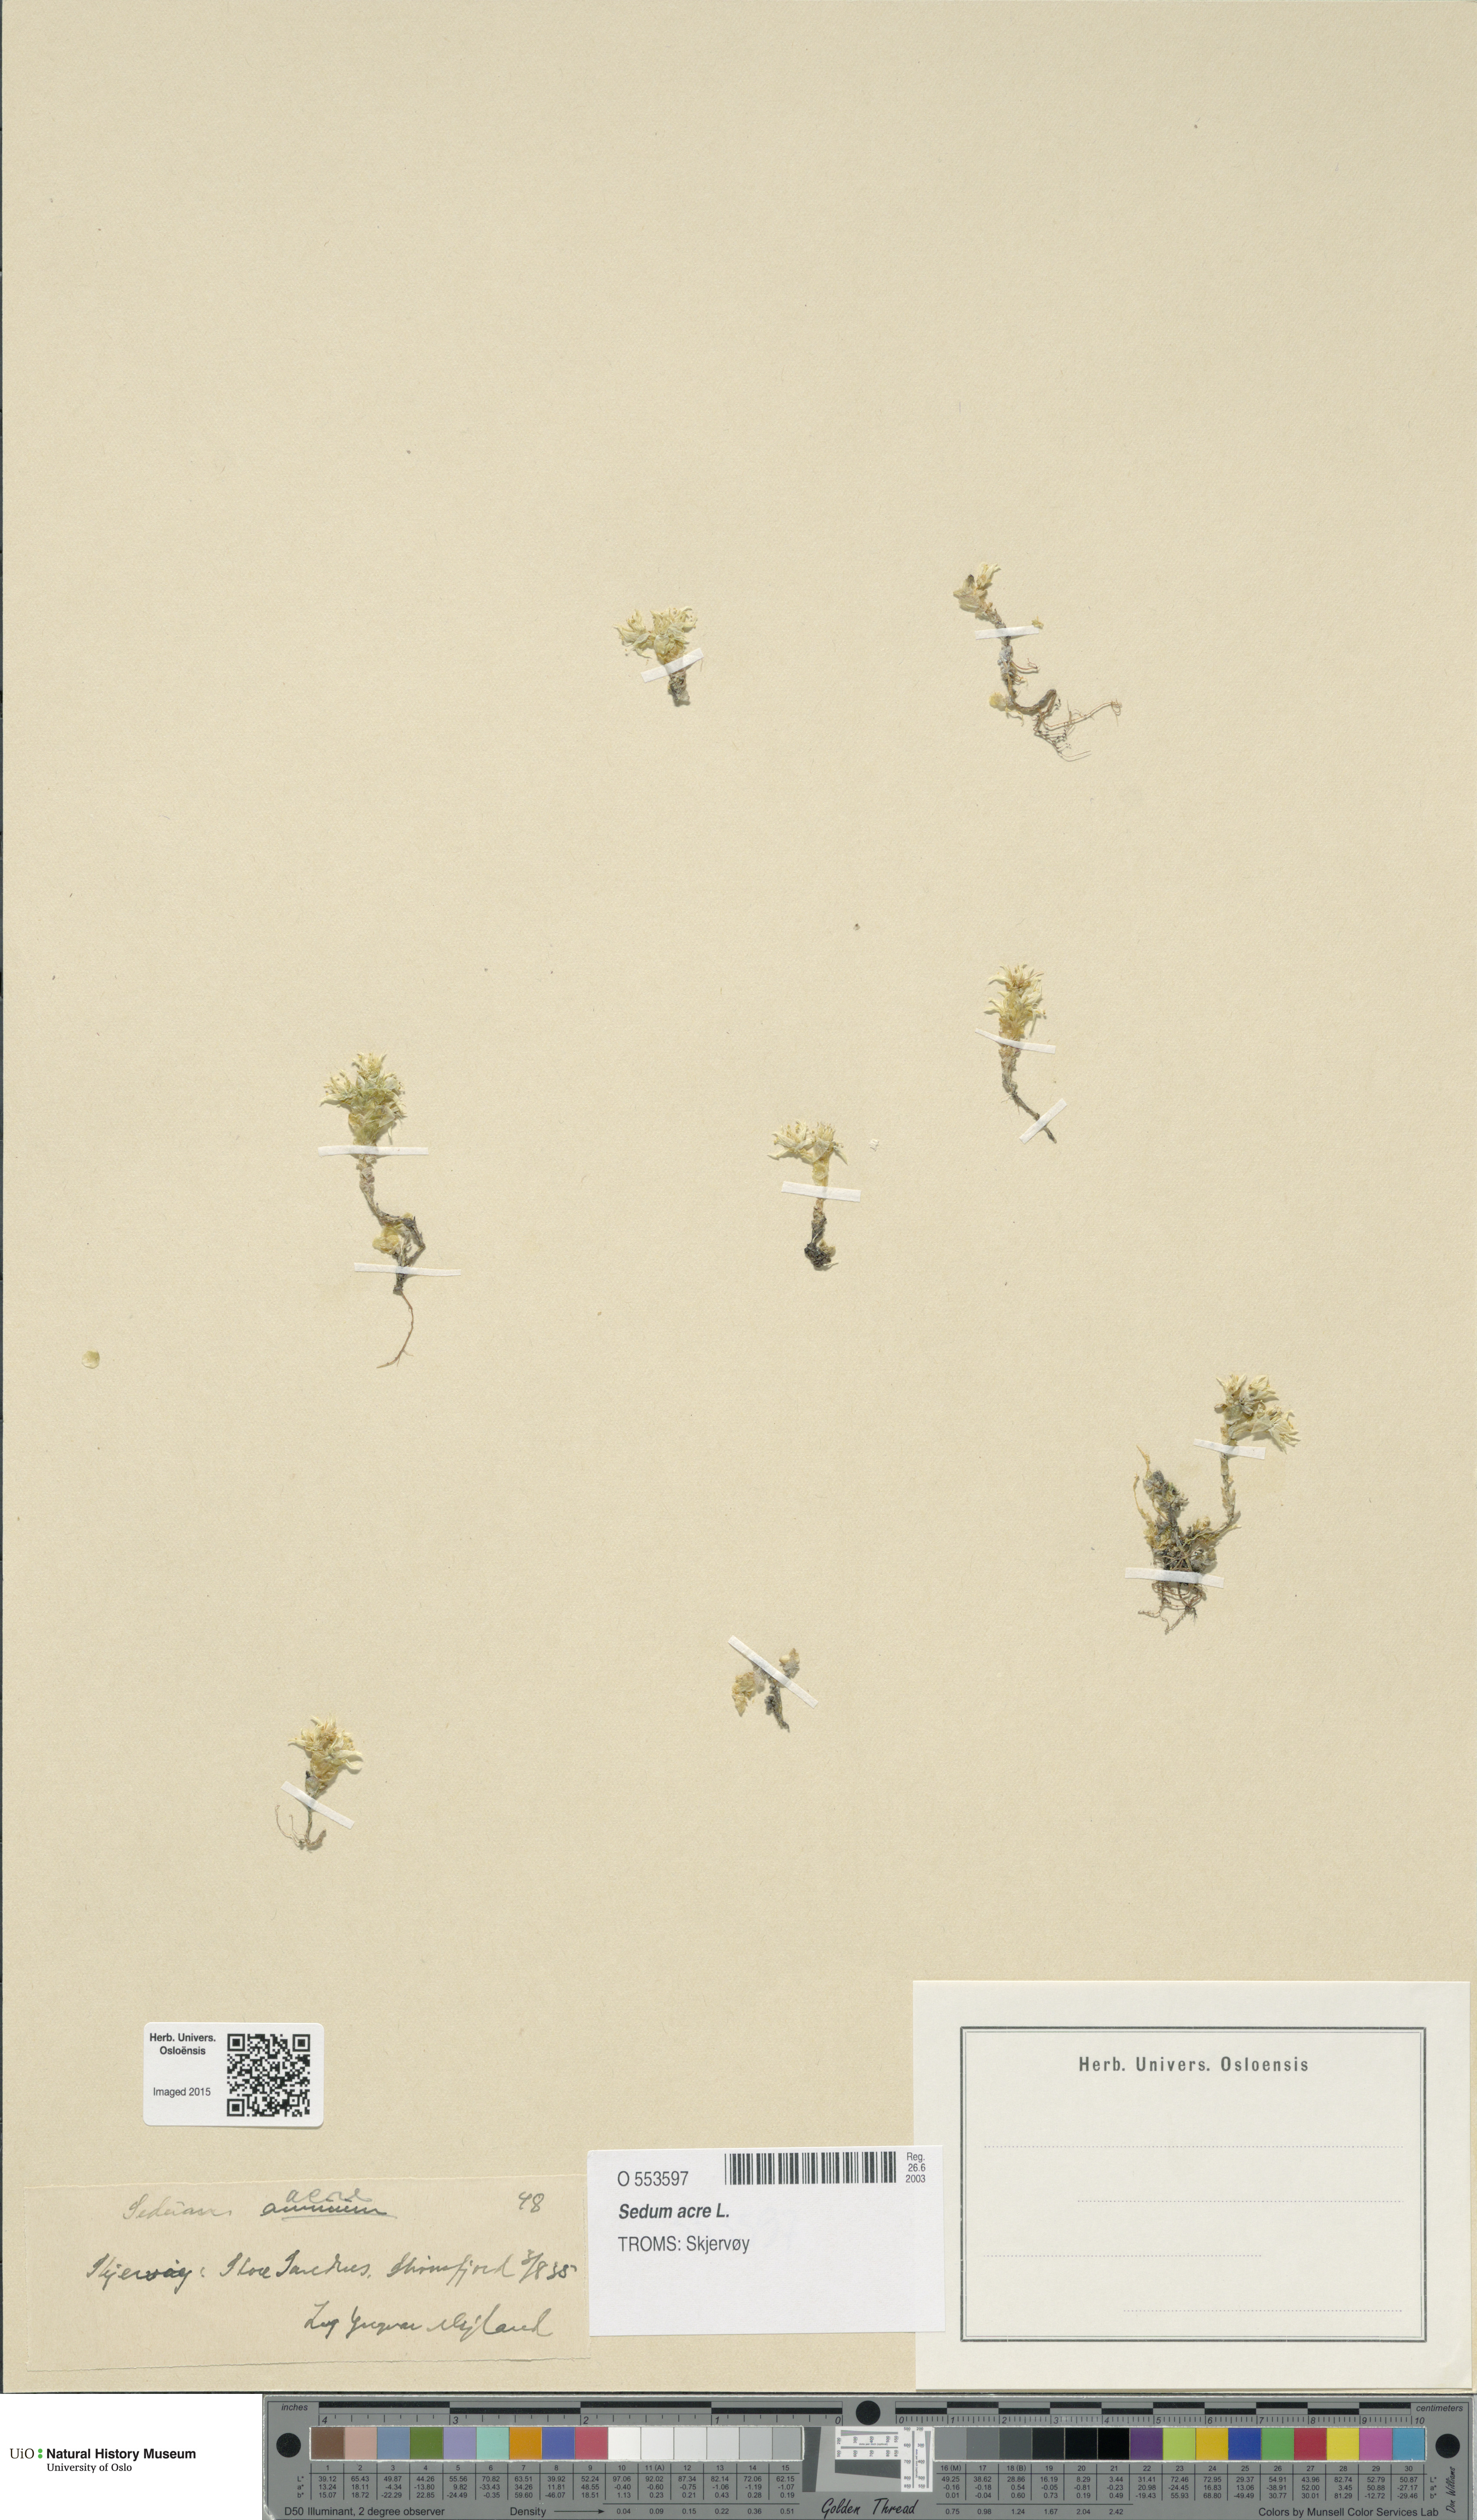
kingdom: Plantae
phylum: Tracheophyta
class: Magnoliopsida
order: Saxifragales
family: Crassulaceae
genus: Sedum
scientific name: Sedum acre
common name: Biting stonecrop
